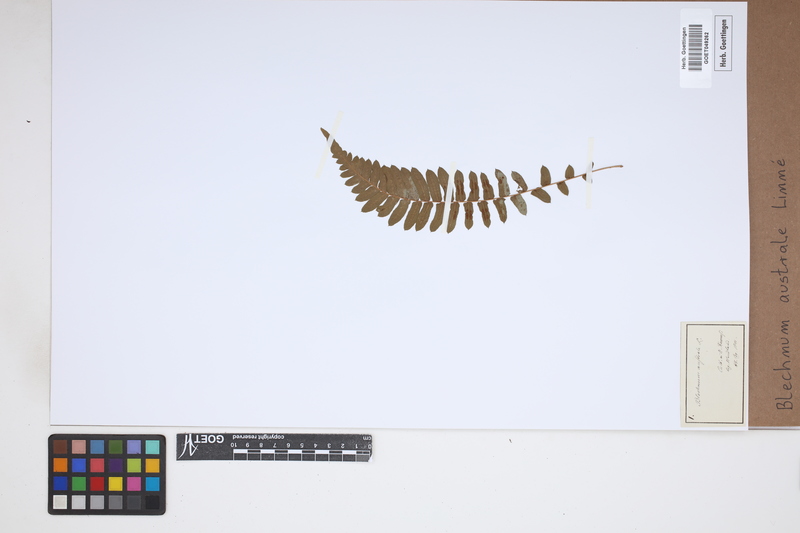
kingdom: Plantae
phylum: Tracheophyta
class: Polypodiopsida
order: Polypodiales
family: Blechnaceae
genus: Blechnum
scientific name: Blechnum australe
